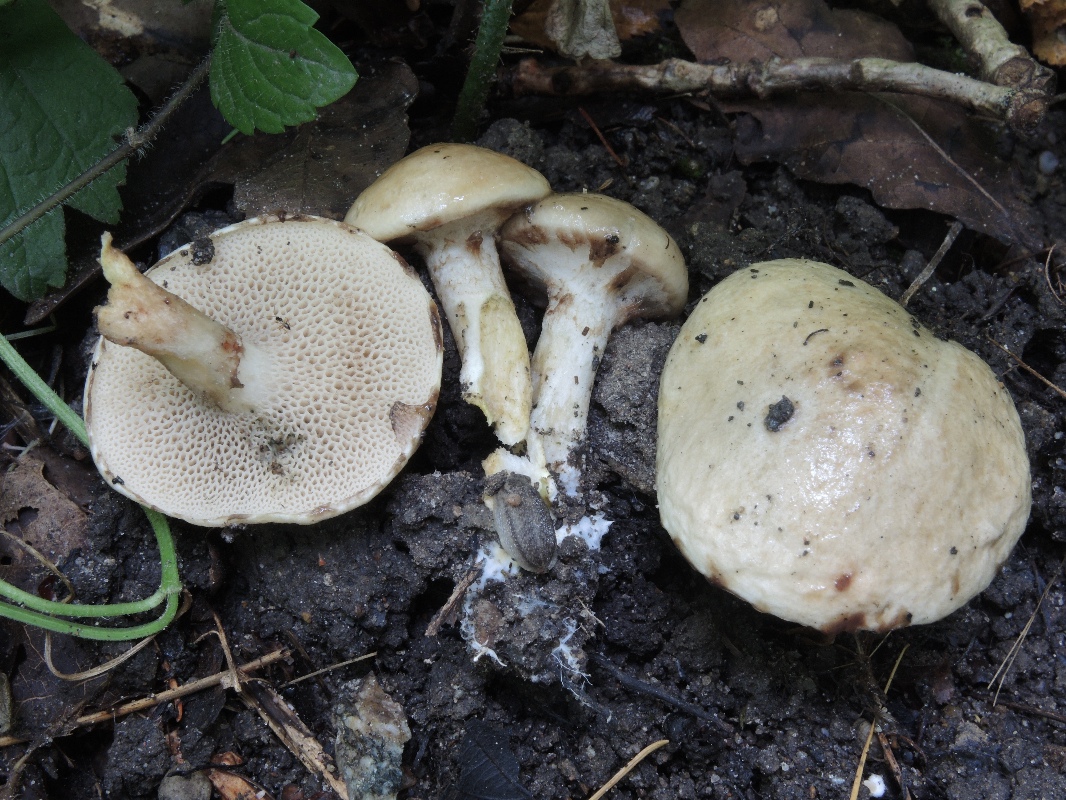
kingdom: Fungi
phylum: Basidiomycota
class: Agaricomycetes
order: Boletales
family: Suillaceae
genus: Suillus
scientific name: Suillus viscidus
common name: olivengrå slimrørhat
